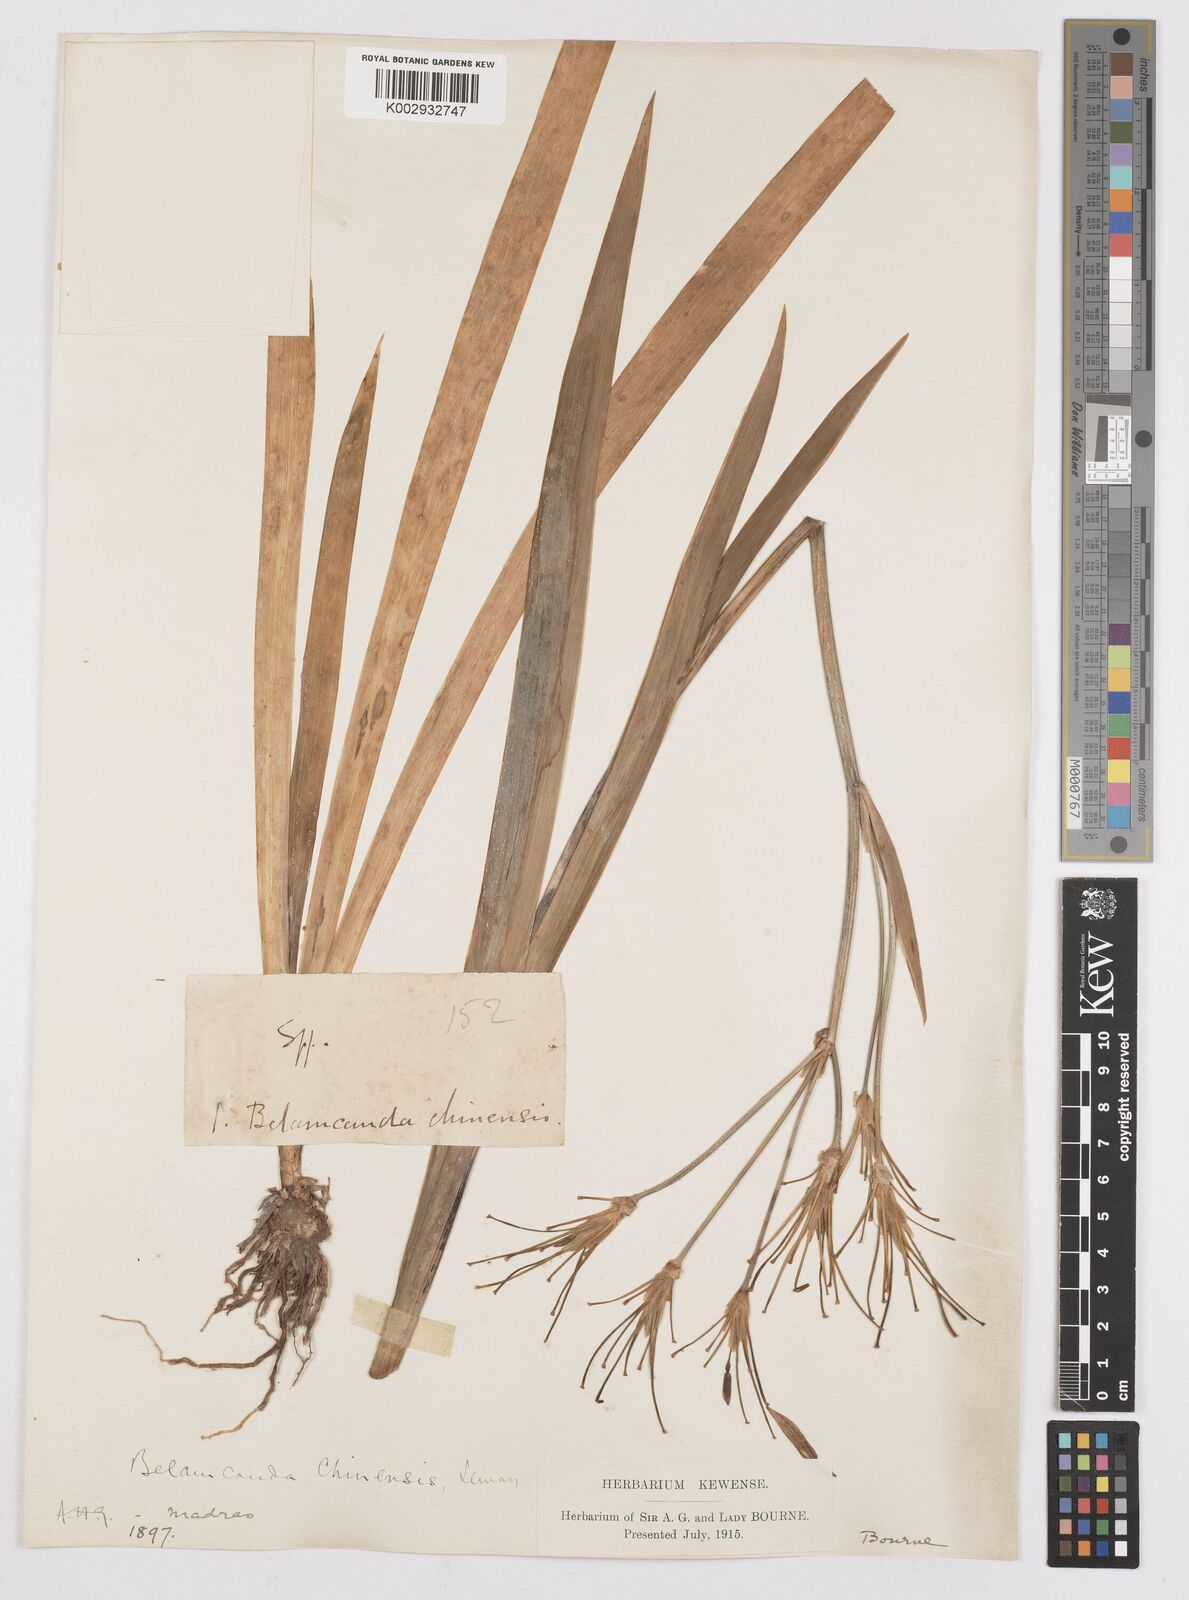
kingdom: Plantae
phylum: Tracheophyta
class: Liliopsida
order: Asparagales
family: Iridaceae
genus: Iris
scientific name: Iris
